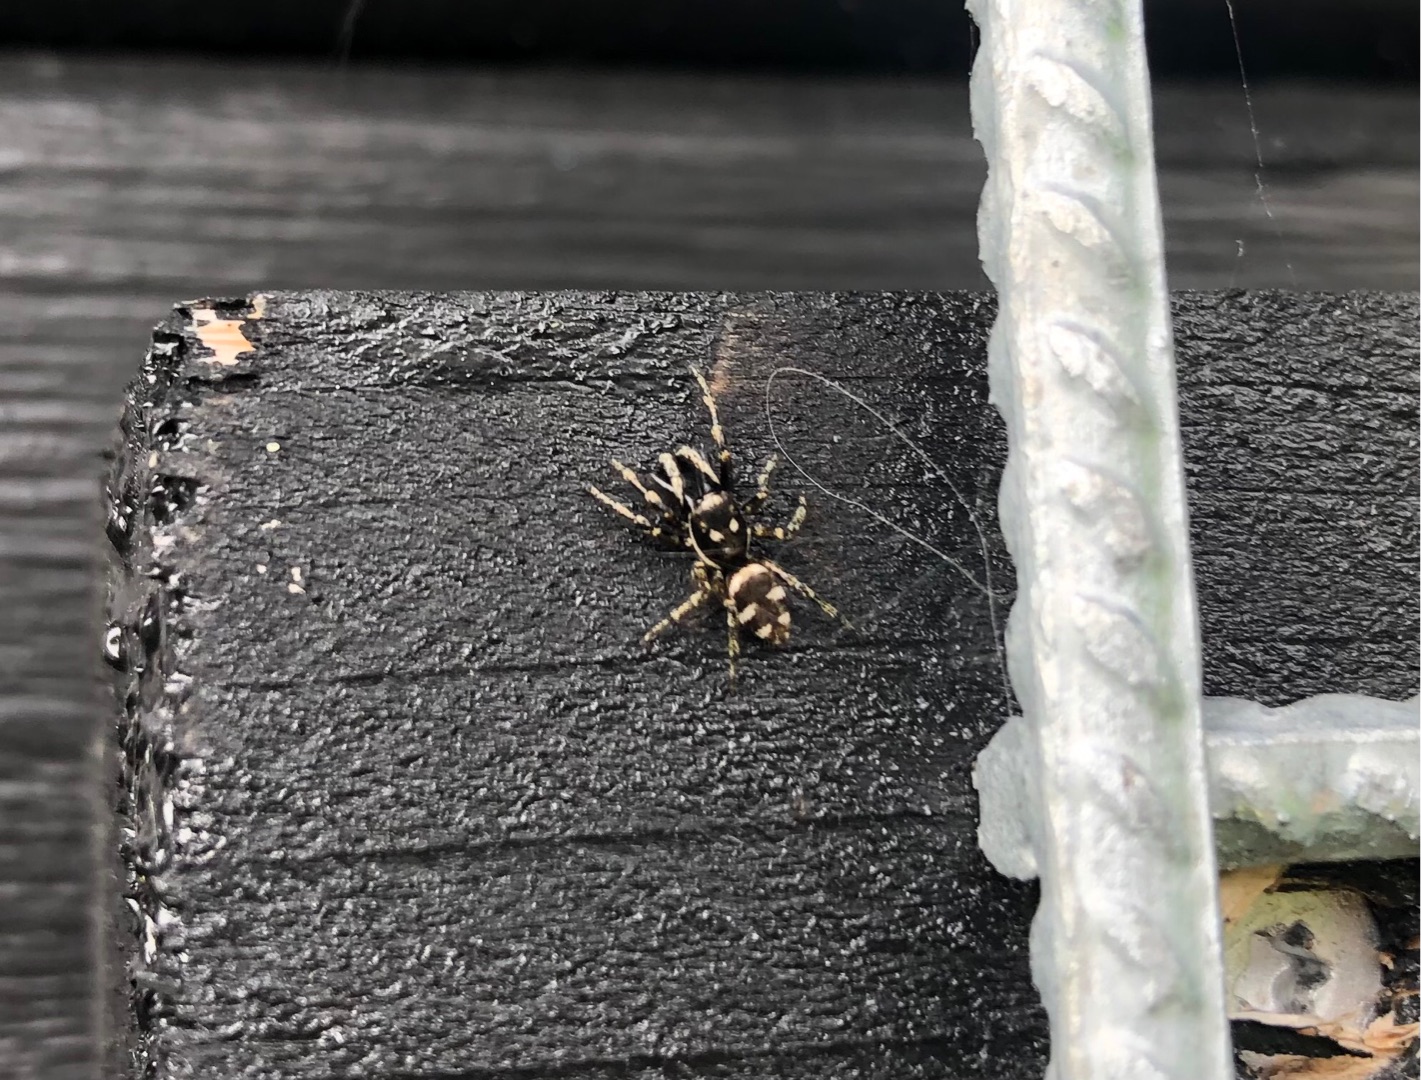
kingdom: Animalia
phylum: Arthropoda
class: Arachnida
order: Araneae
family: Salticidae
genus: Salticus
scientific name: Salticus scenicus
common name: Almindelig zebraedderkop
